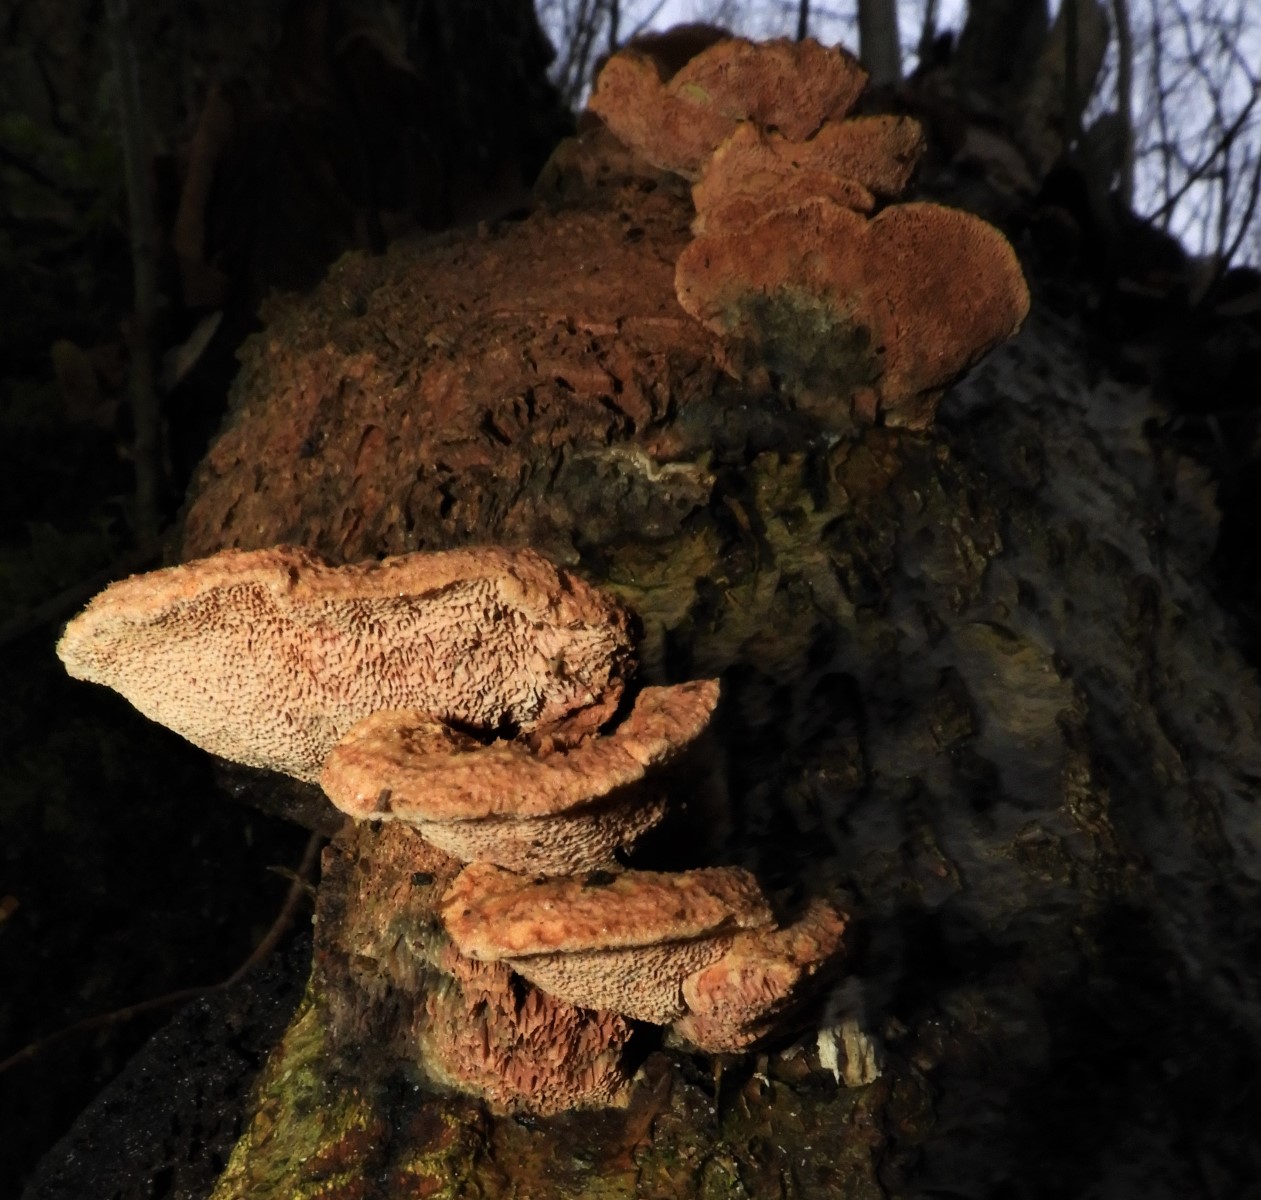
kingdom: Fungi
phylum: Basidiomycota
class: Agaricomycetes
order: Polyporales
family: Phanerochaetaceae
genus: Hapalopilus
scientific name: Hapalopilus rutilans
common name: rødlig okkerporesvamp
